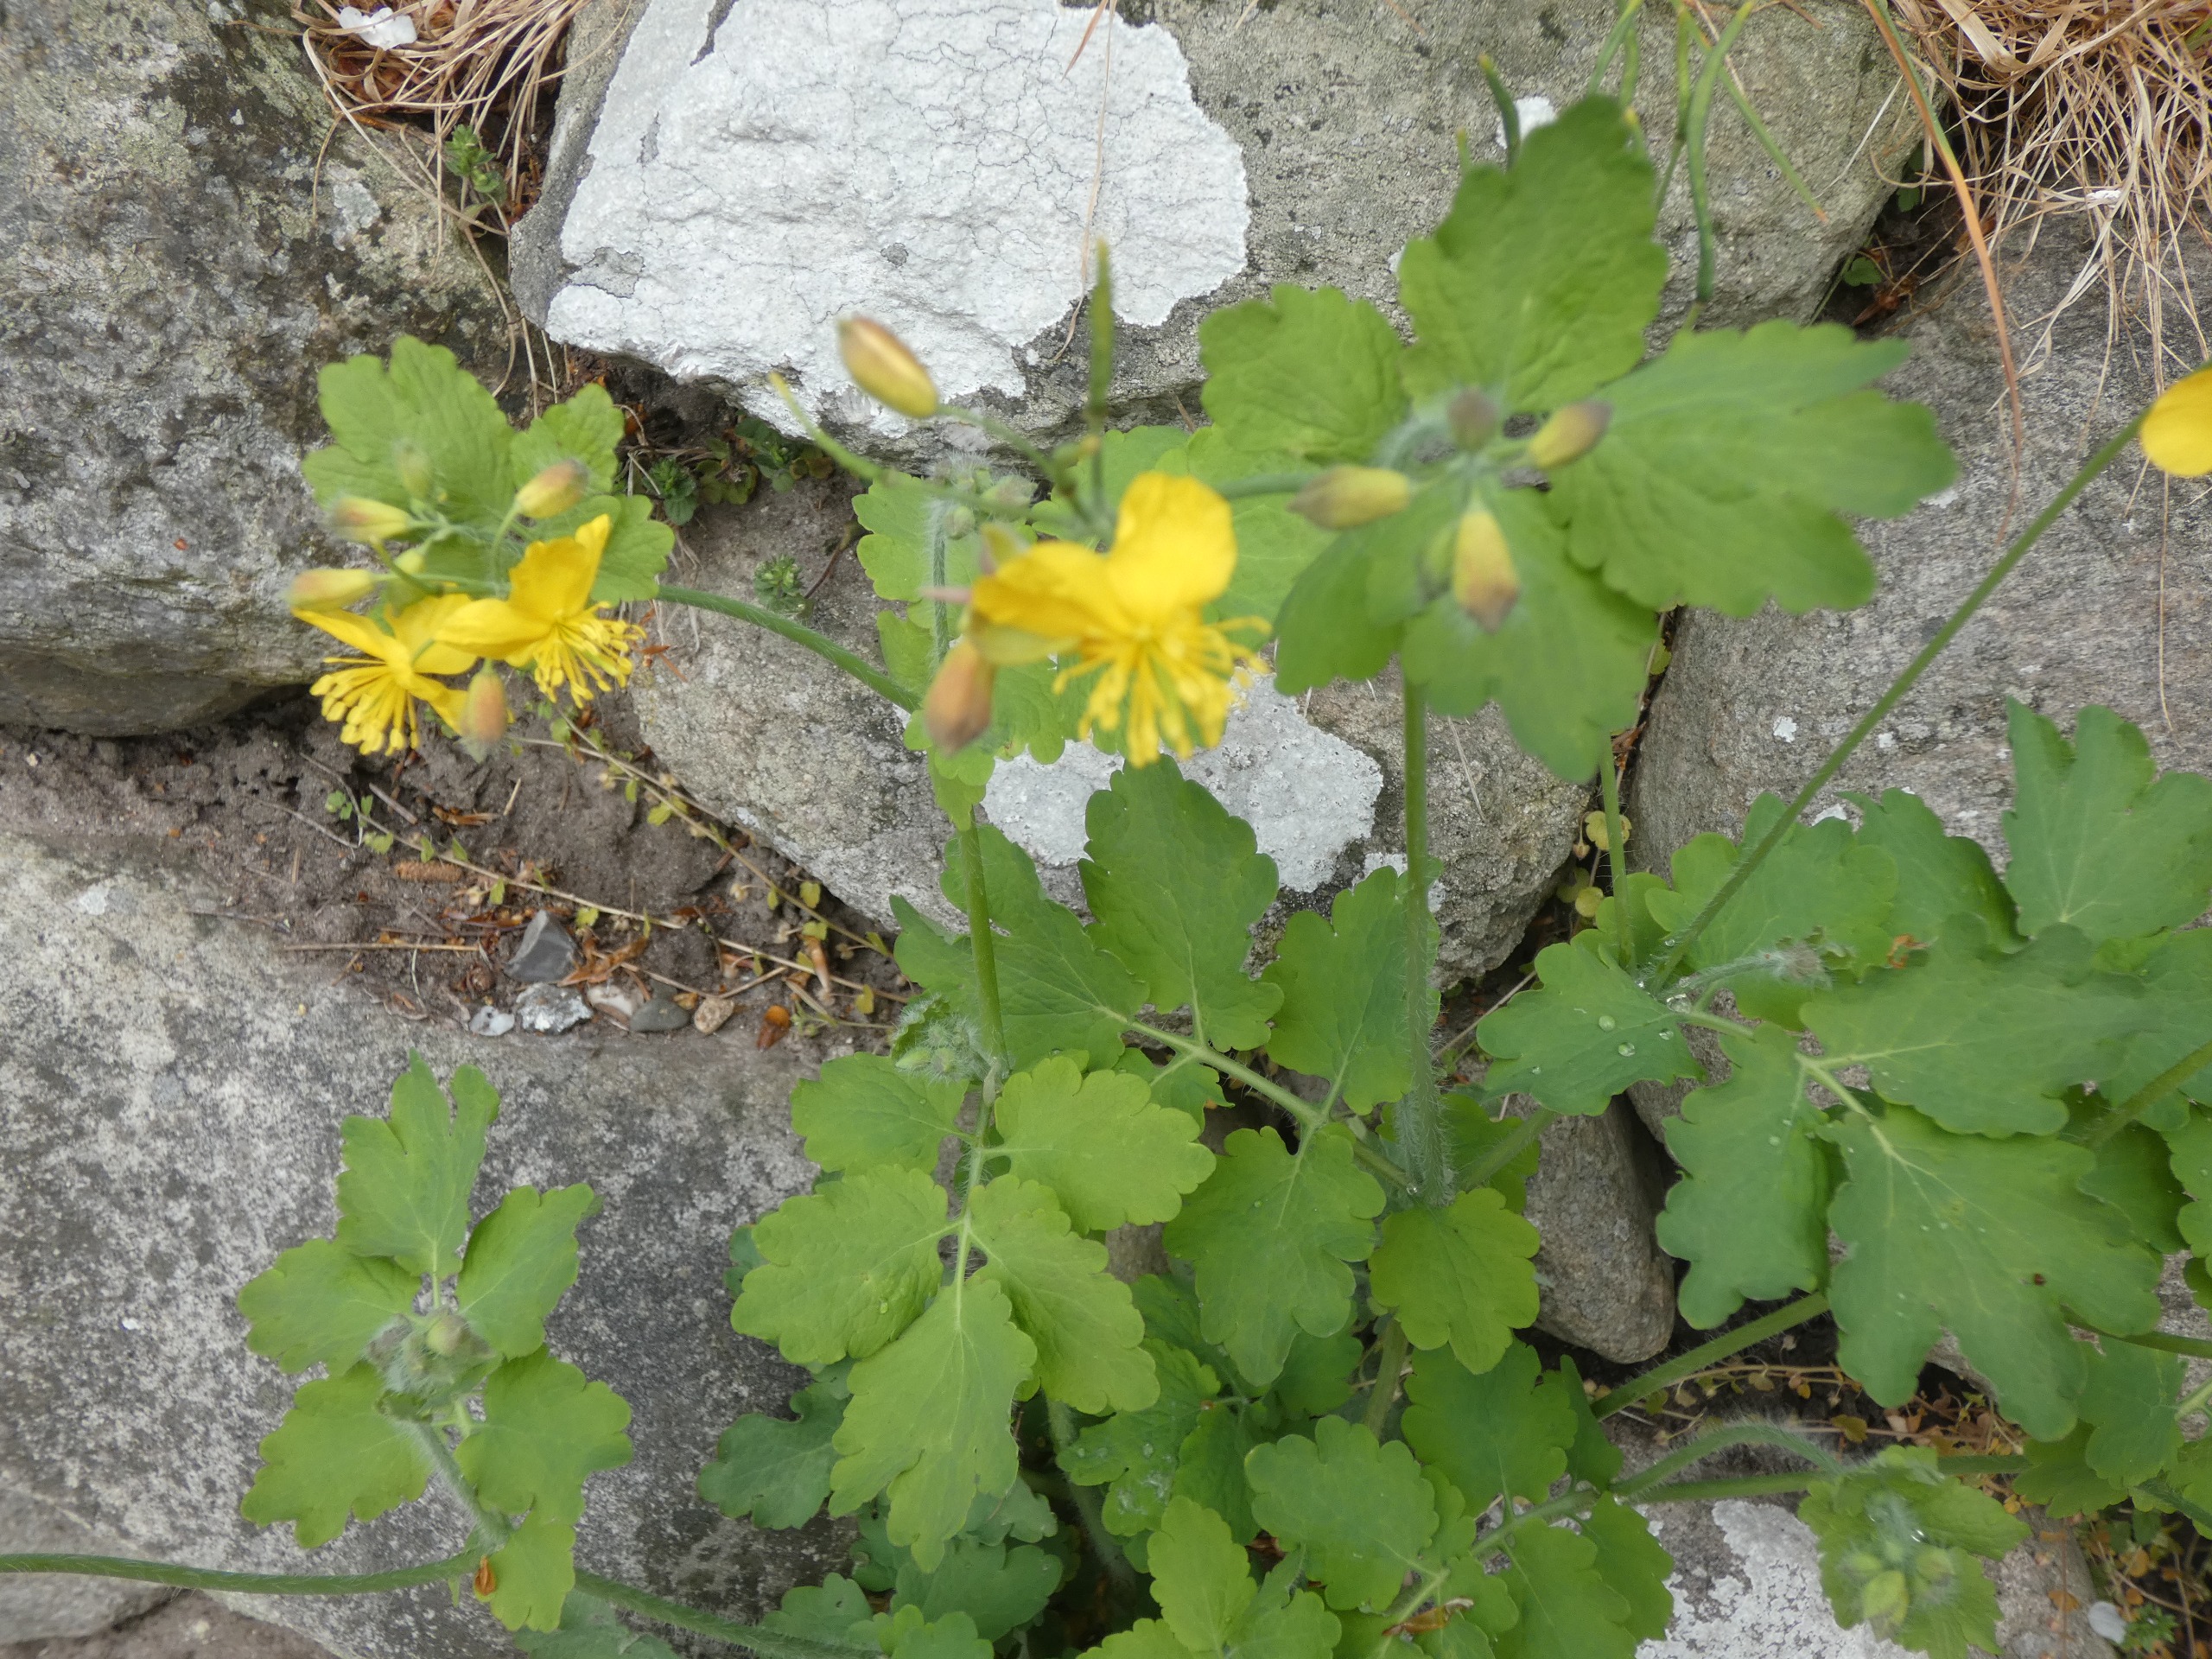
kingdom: Plantae
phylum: Tracheophyta
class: Magnoliopsida
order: Ranunculales
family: Papaveraceae
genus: Chelidonium
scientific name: Chelidonium majus
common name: Svaleurt
